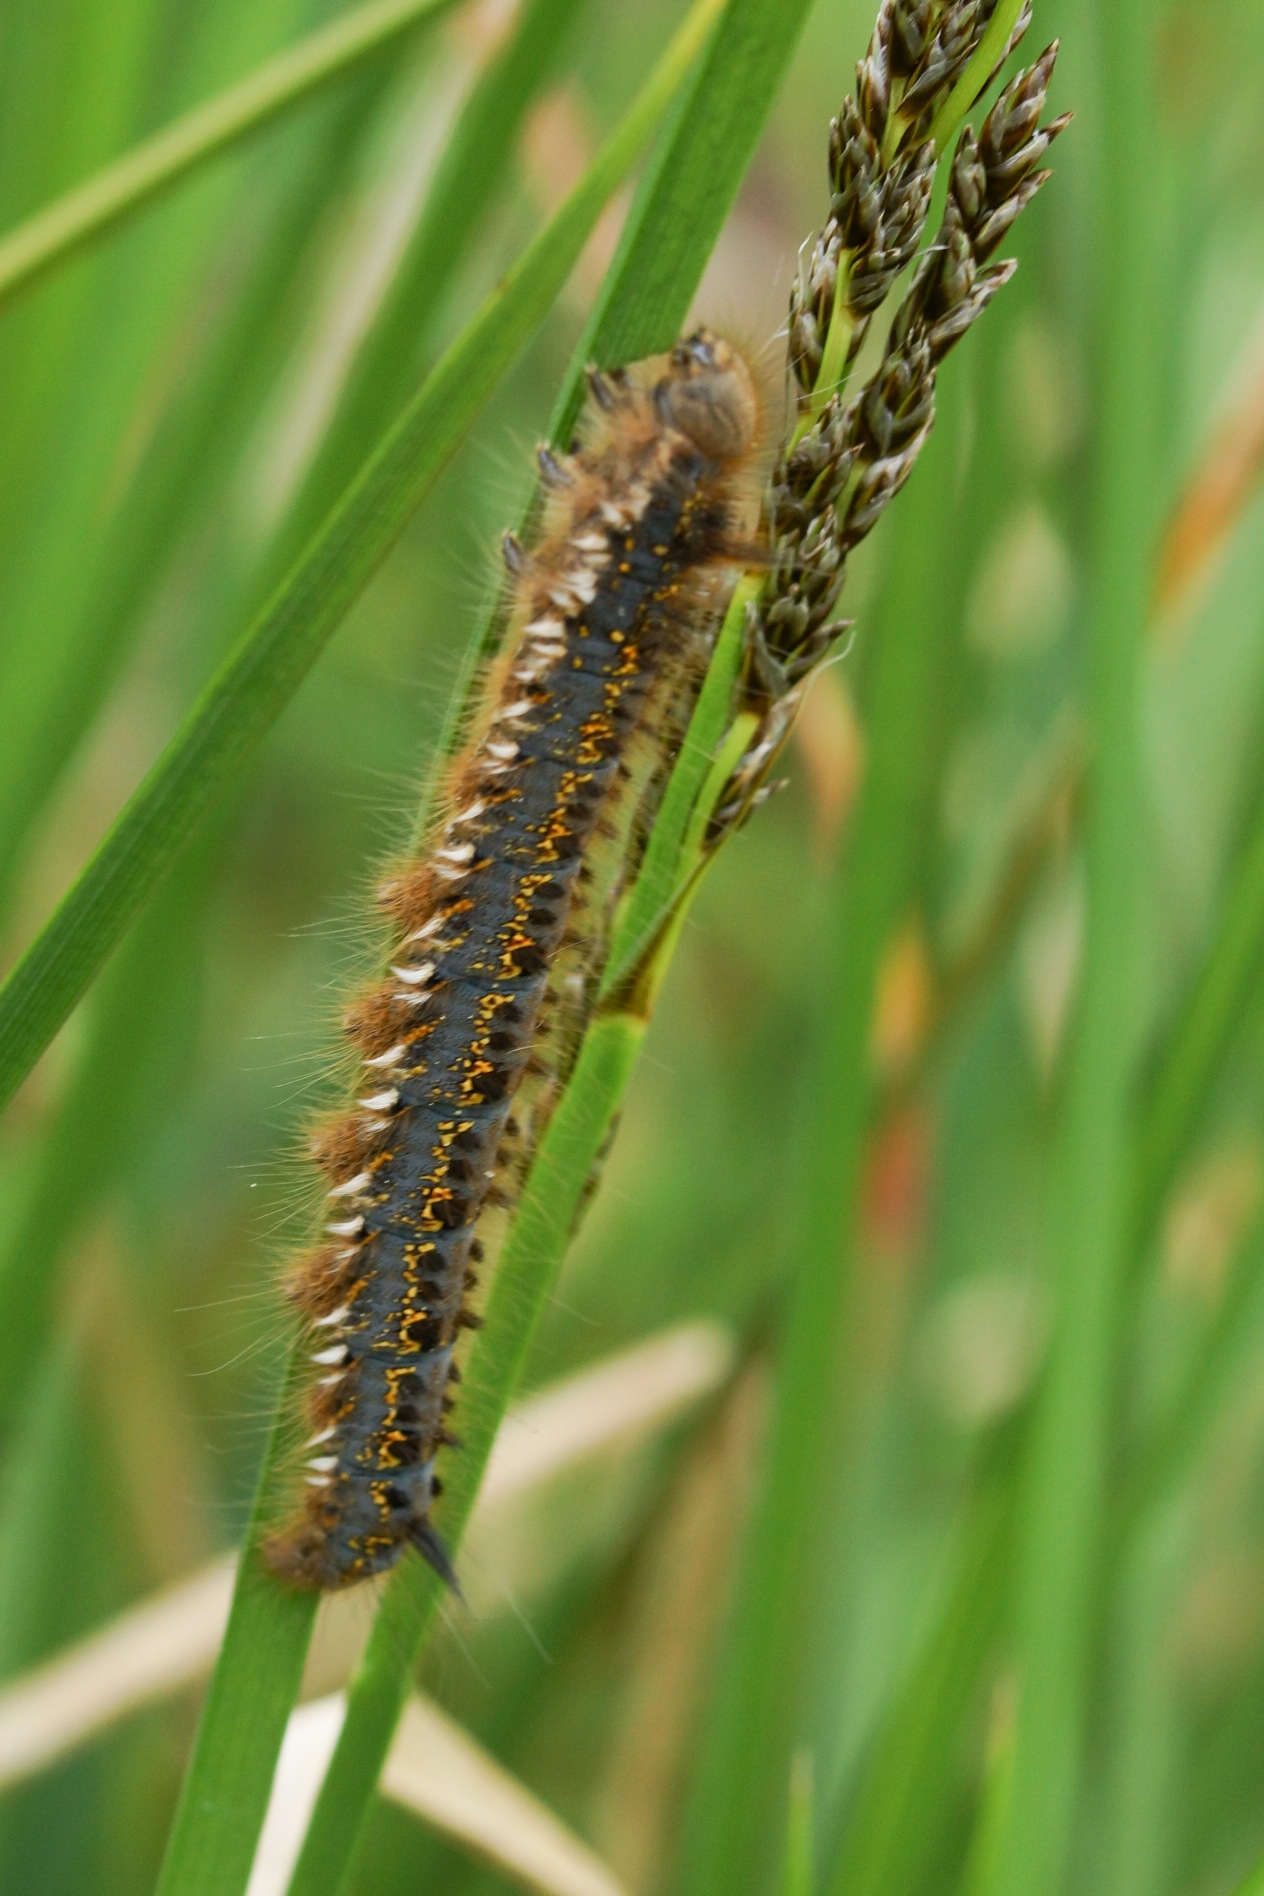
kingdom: Animalia
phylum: Arthropoda
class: Insecta
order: Lepidoptera
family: Lasiocampidae
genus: Euthrix
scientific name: Euthrix potatoria
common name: Græsspinder
